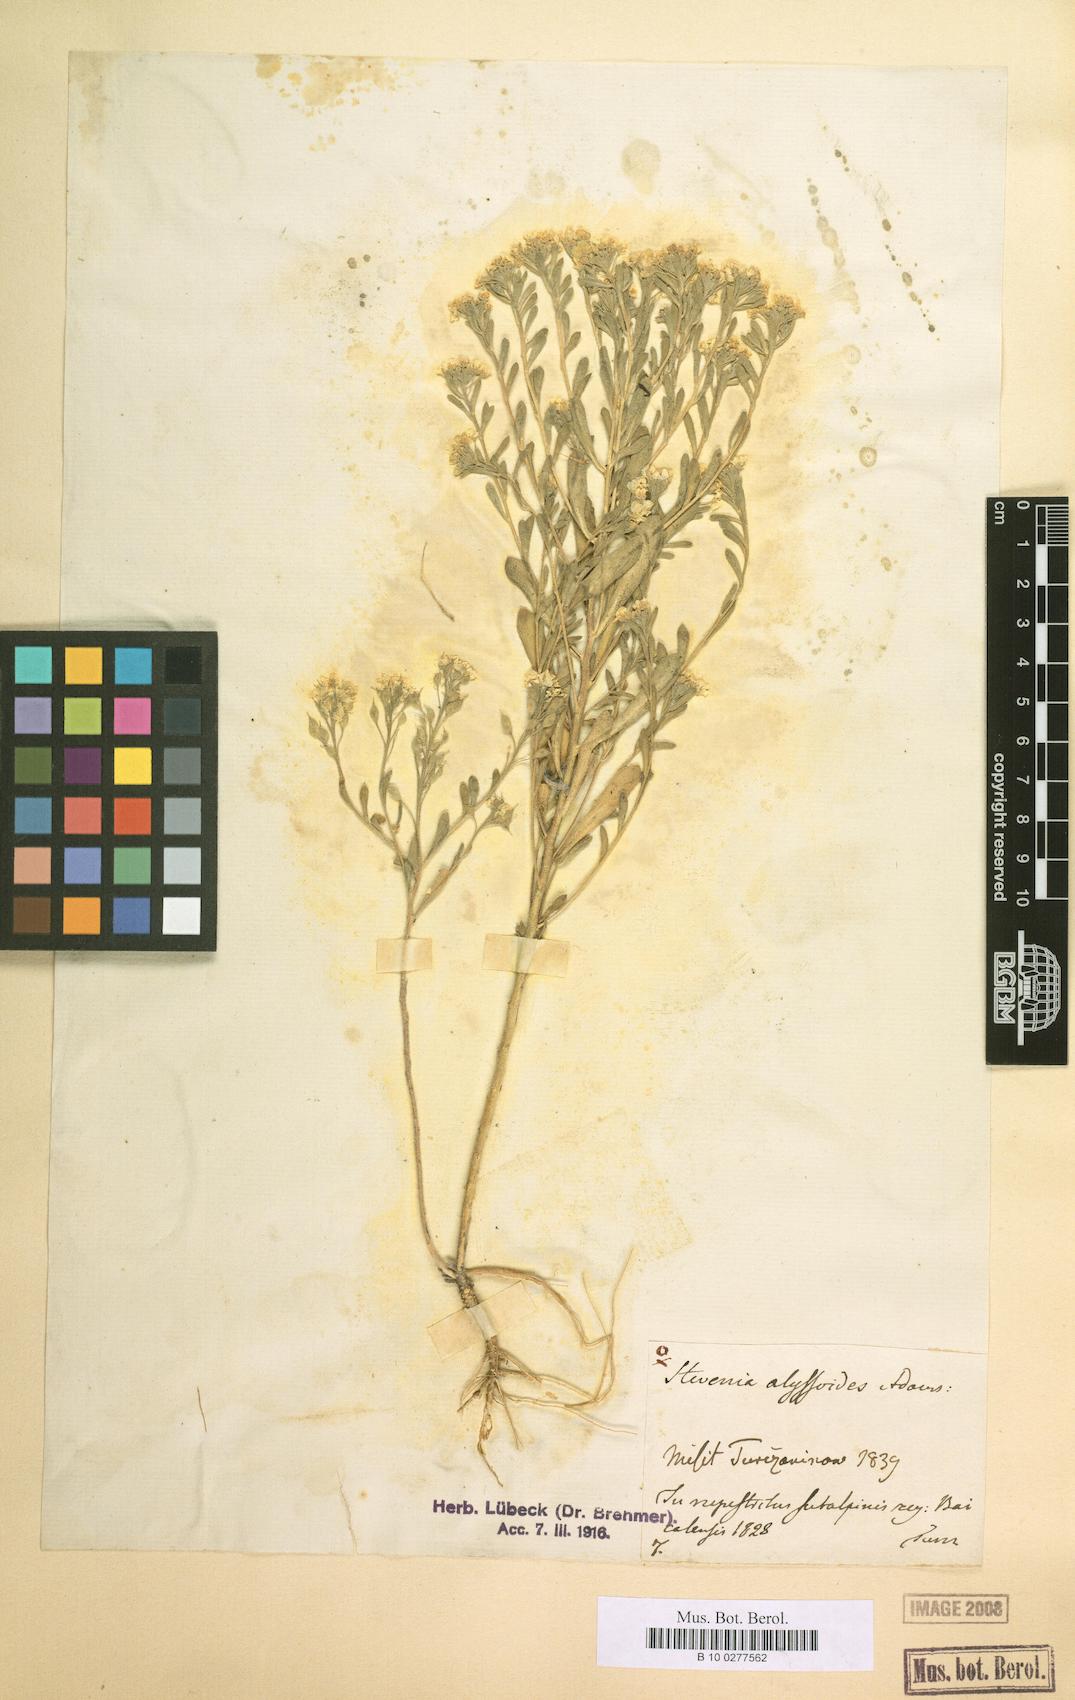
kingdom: Plantae
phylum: Tracheophyta
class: Magnoliopsida
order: Brassicales
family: Brassicaceae
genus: Stevenia
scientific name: Stevenia alyssoides
